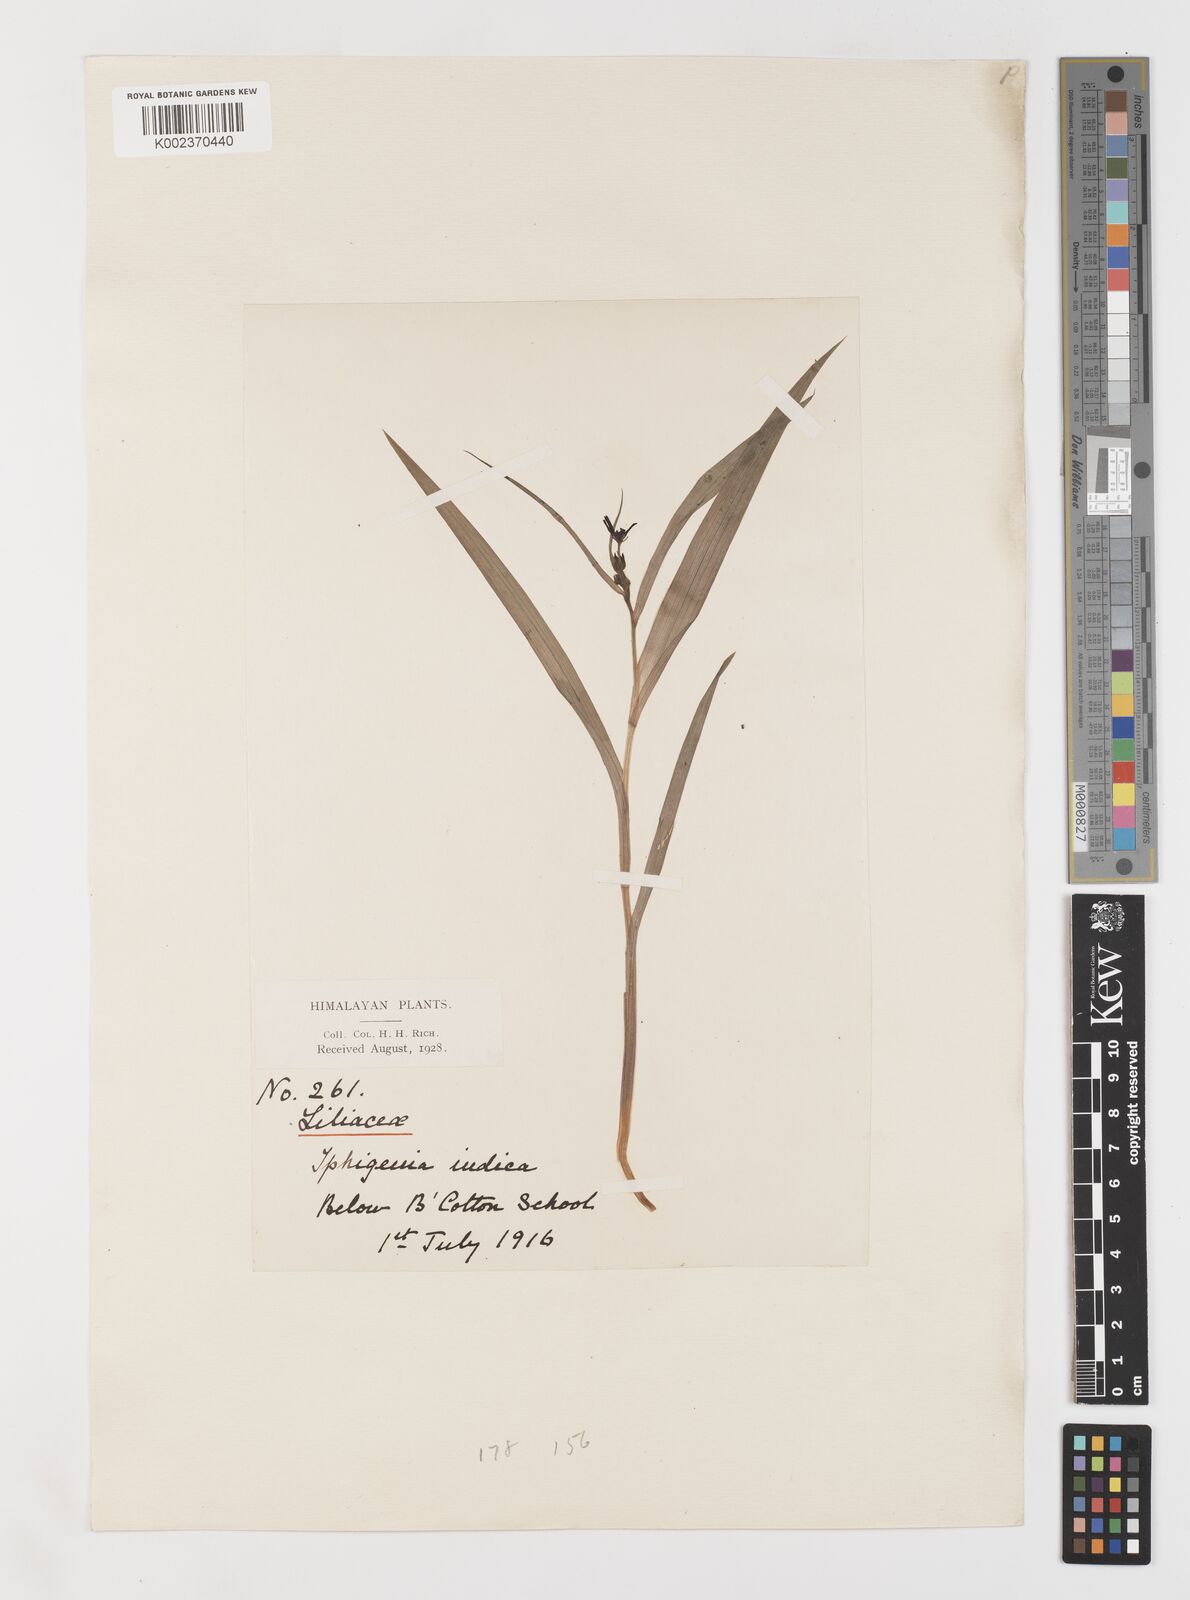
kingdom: Plantae
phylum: Tracheophyta
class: Liliopsida
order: Liliales
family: Colchicaceae
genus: Iphigenia
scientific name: Iphigenia indica
